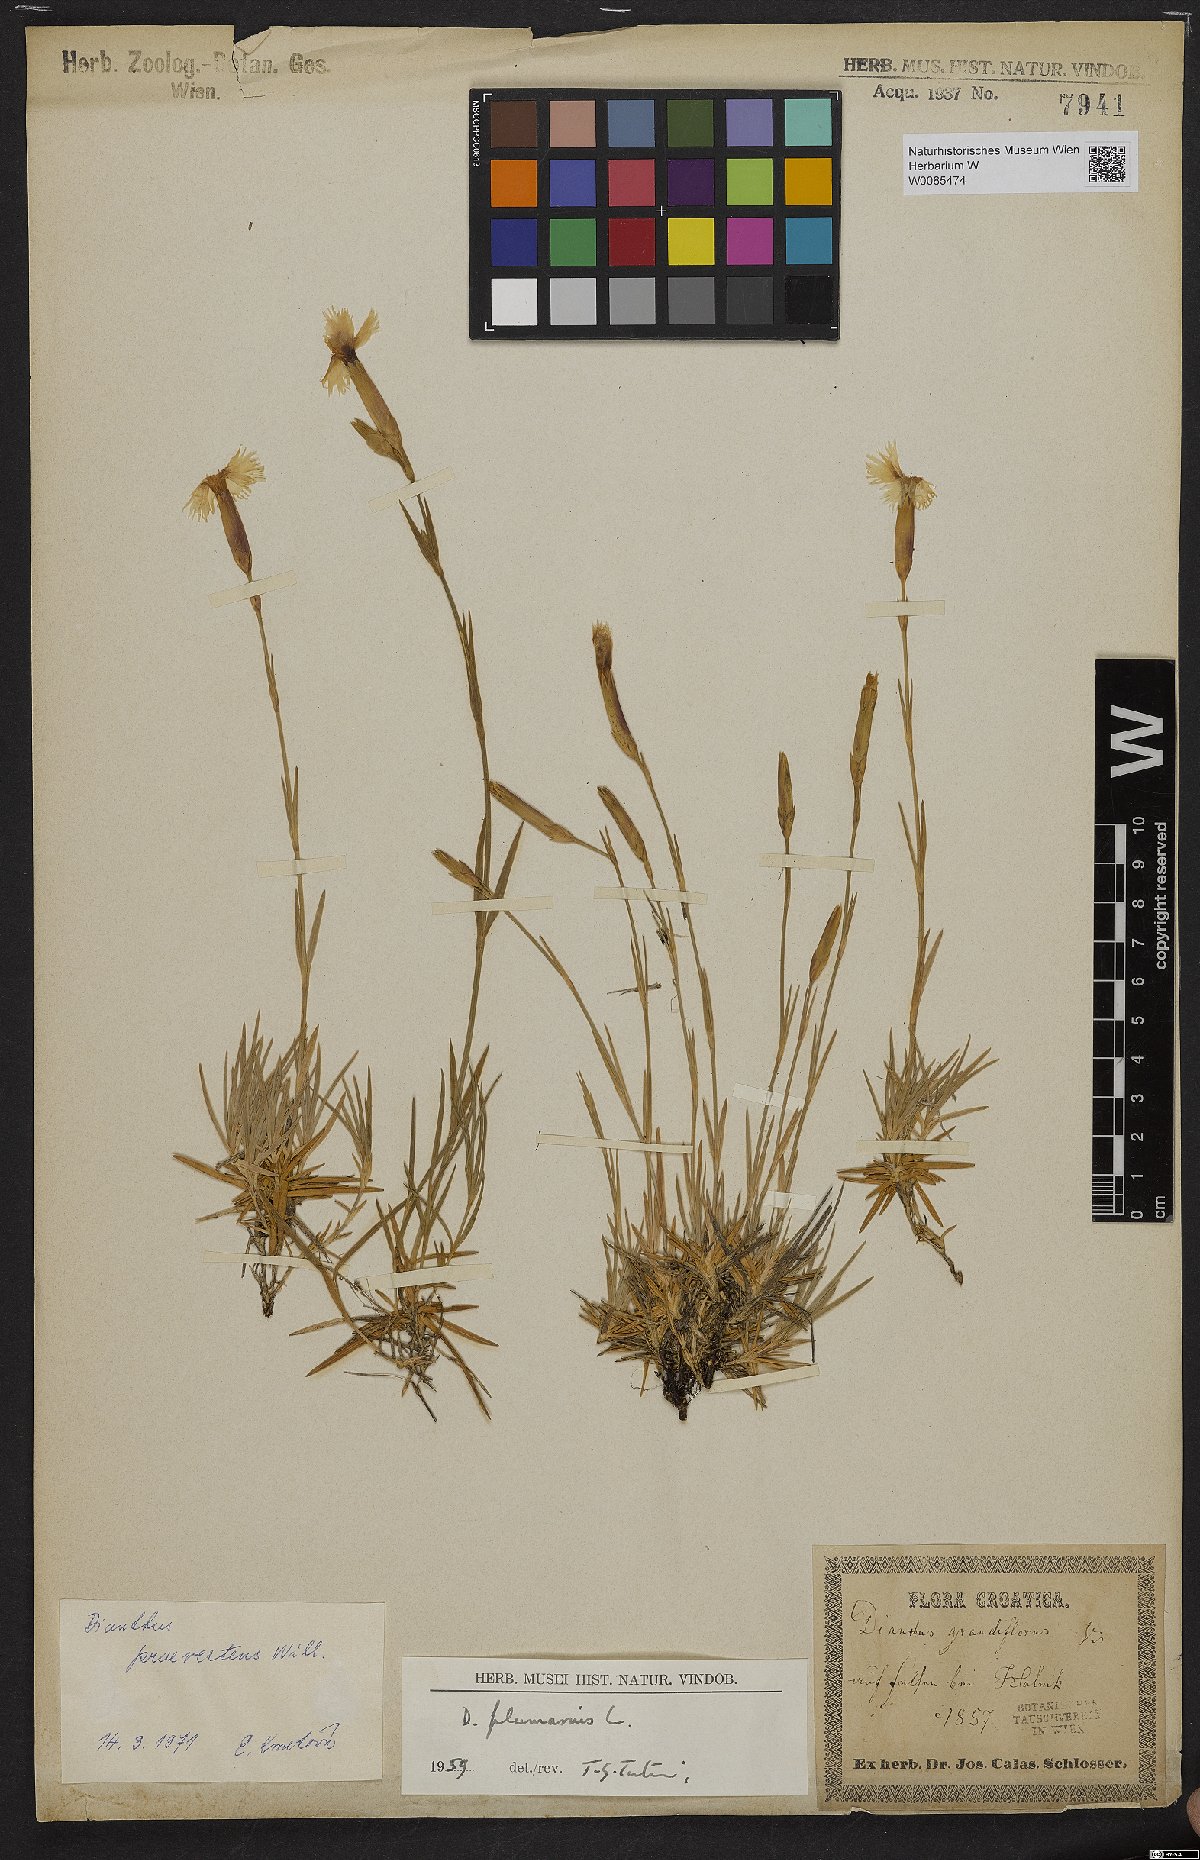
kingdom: Plantae
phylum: Tracheophyta
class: Magnoliopsida
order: Caryophyllales
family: Caryophyllaceae
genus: Dianthus
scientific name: Dianthus praevertens
